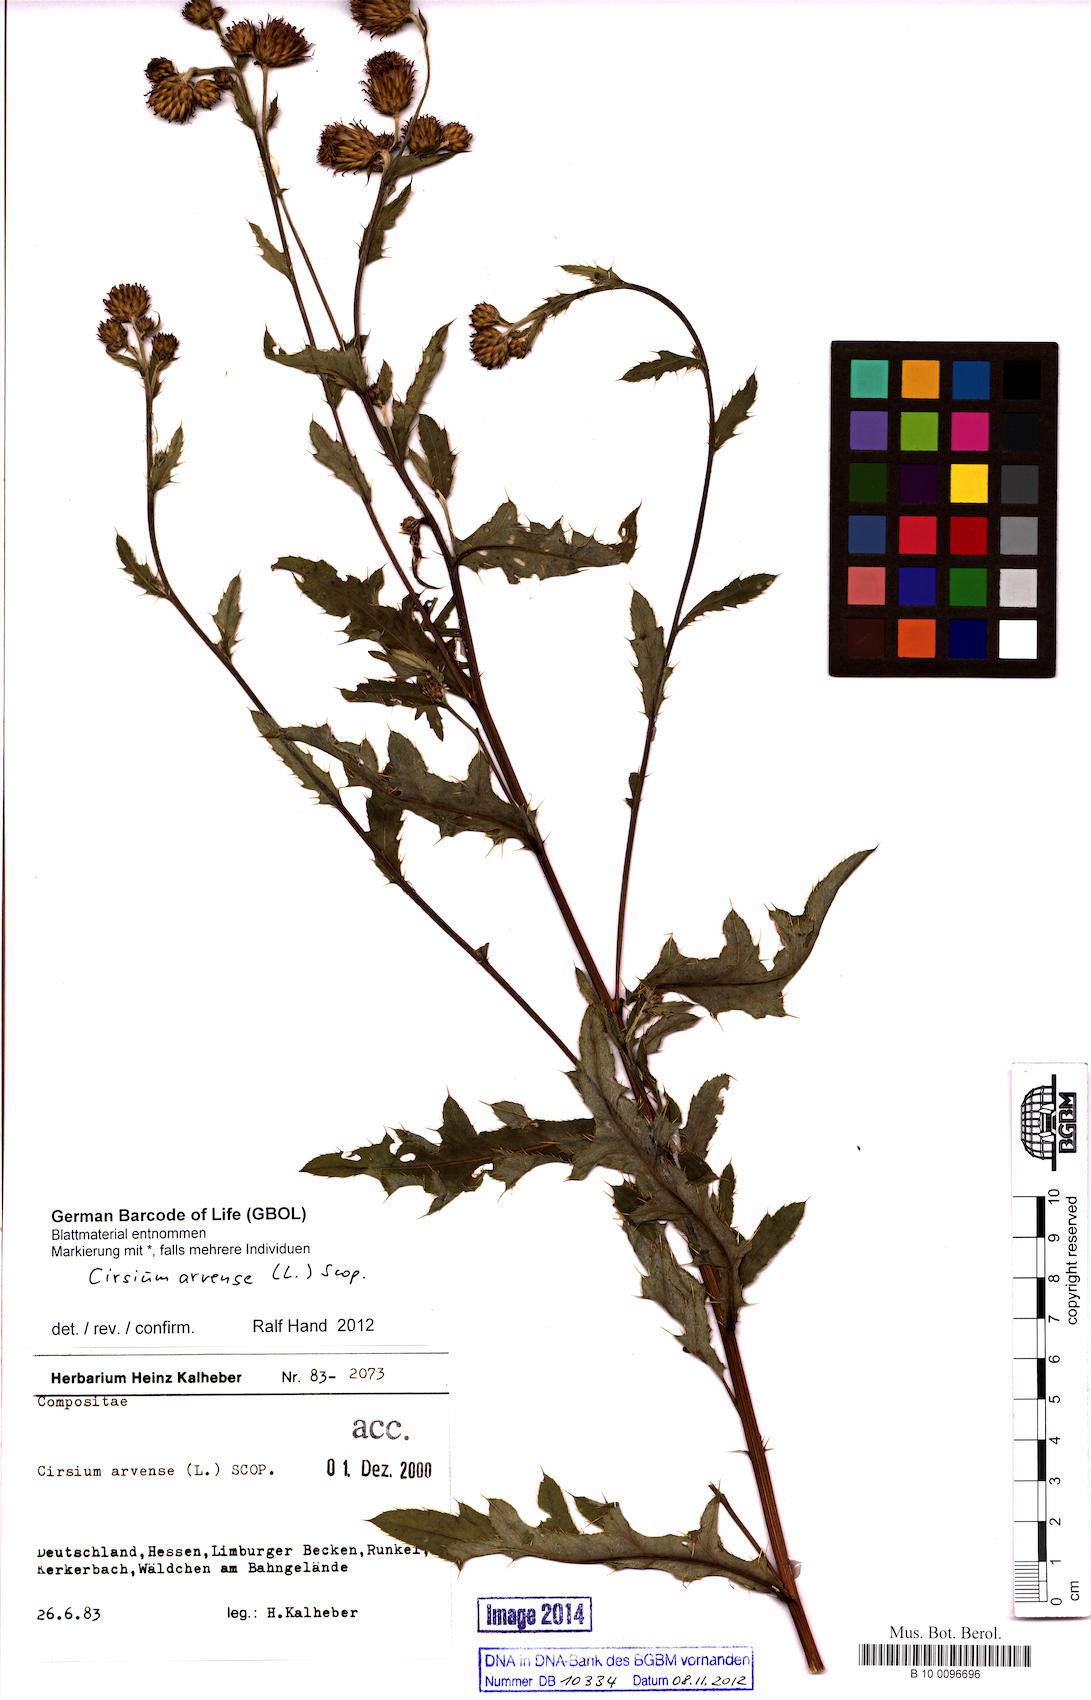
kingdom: Plantae
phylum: Tracheophyta
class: Magnoliopsida
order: Asterales
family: Asteraceae
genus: Cirsium
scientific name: Cirsium arvense
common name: Creeping thistle
